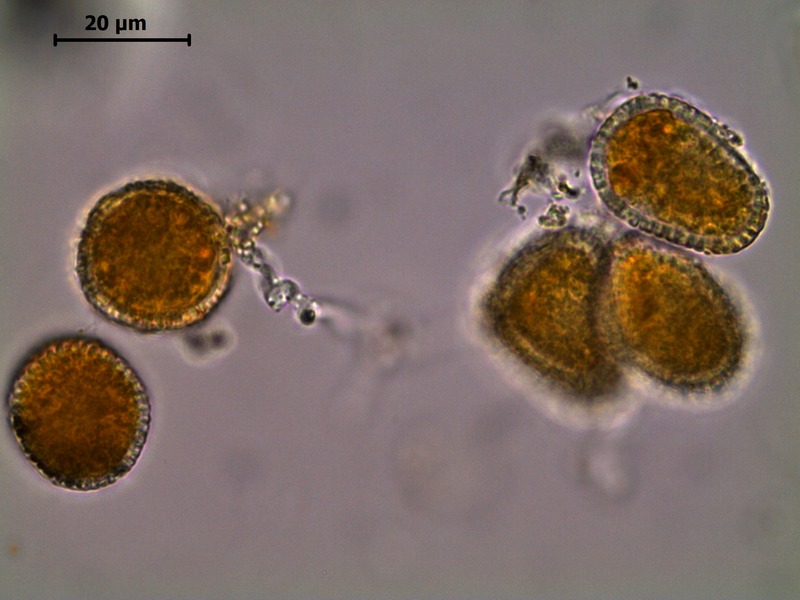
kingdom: Fungi
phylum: Basidiomycota
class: Pucciniomycetes
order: Pucciniales
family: Coleosporiaceae
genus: Coleosporium
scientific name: Coleosporium tussilaginis
